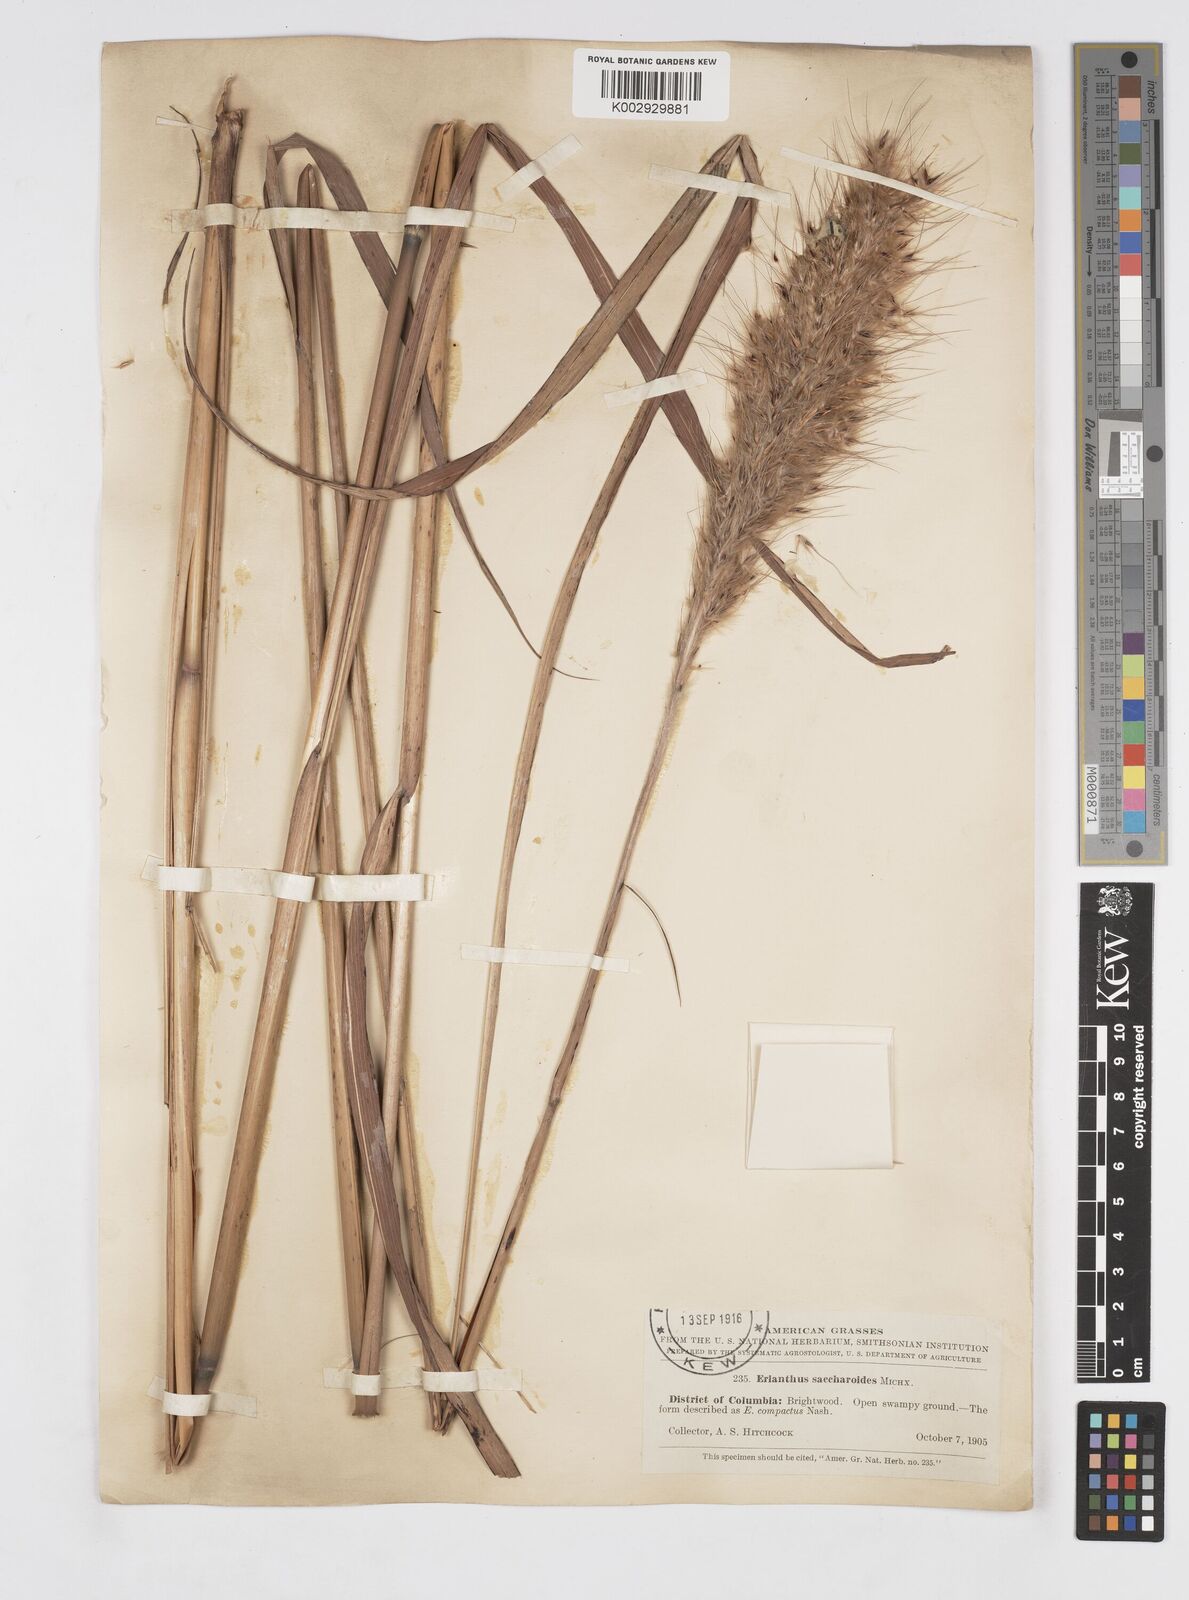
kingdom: Plantae
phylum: Tracheophyta
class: Liliopsida
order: Poales
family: Poaceae
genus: Saccharum
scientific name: Saccharum
